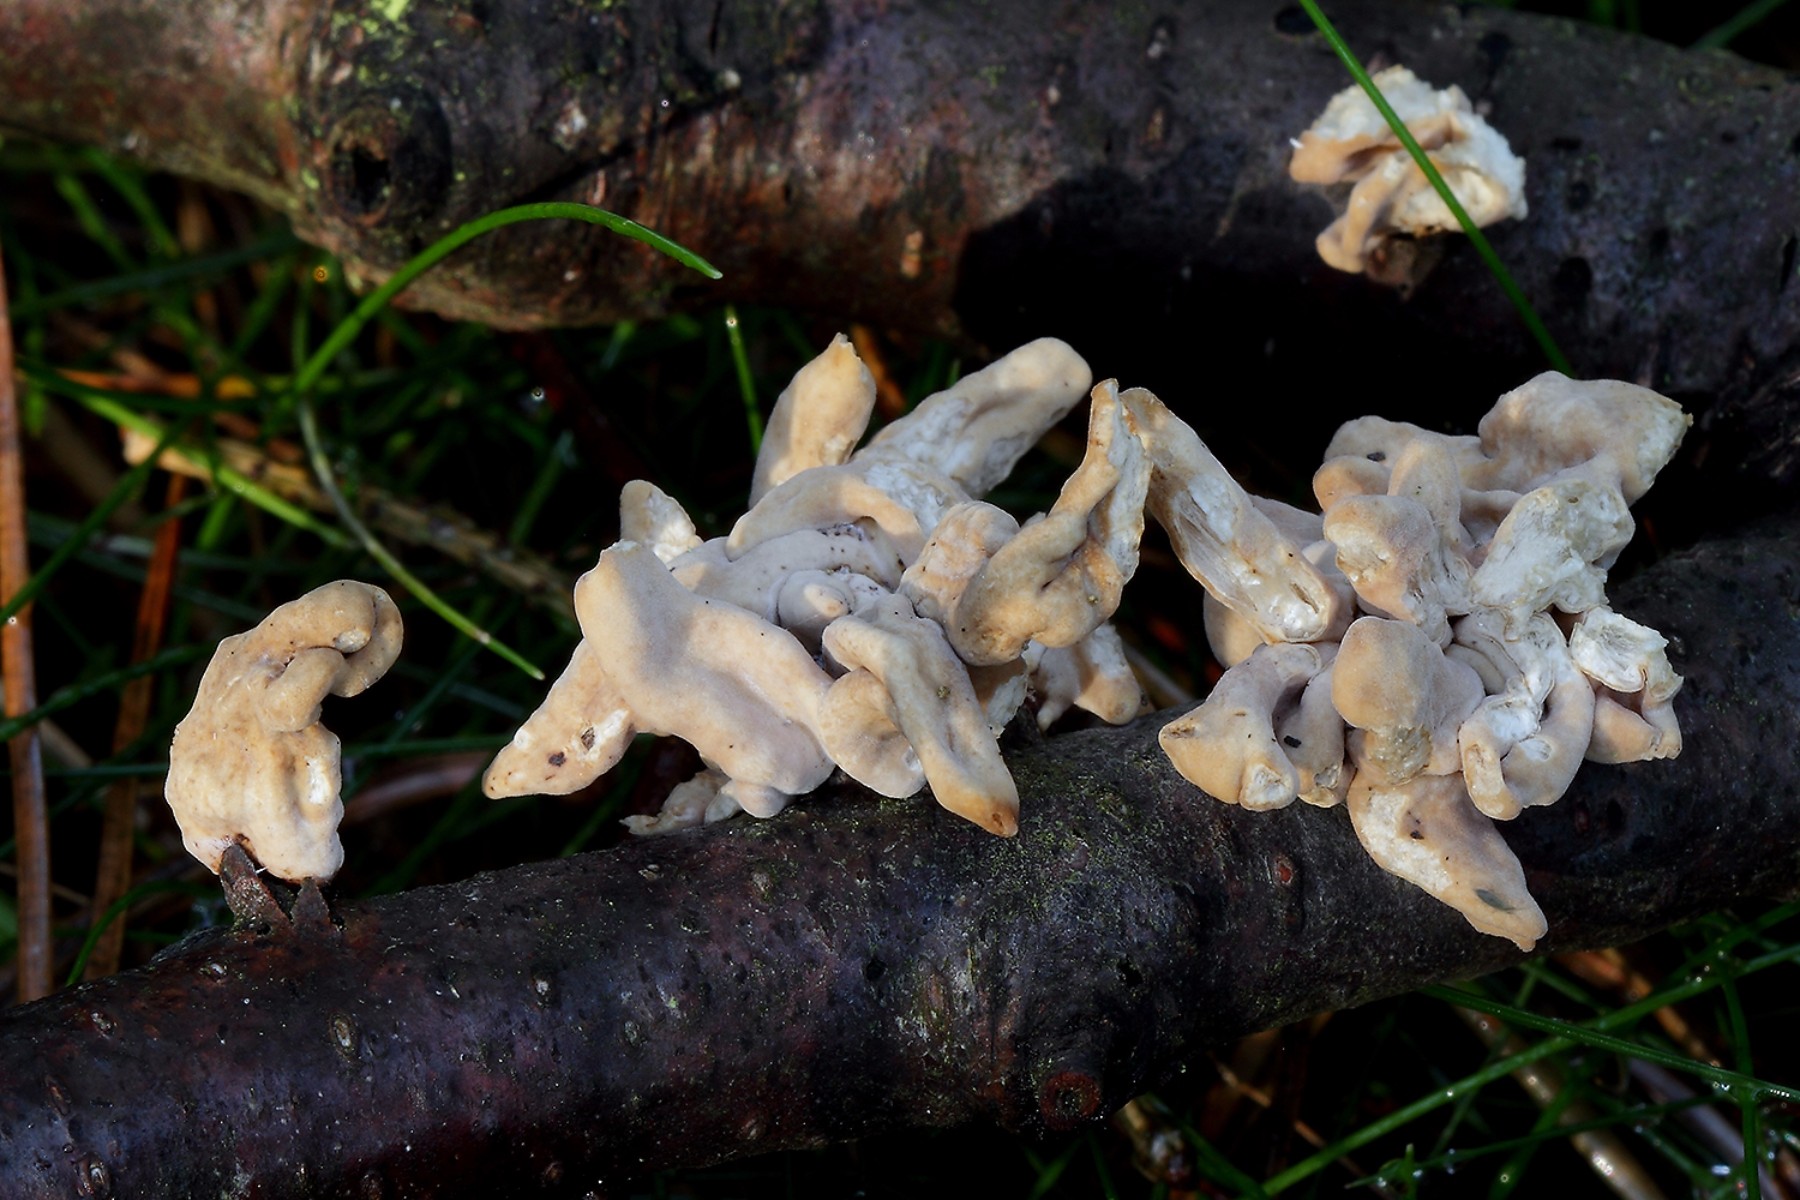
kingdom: Fungi
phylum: Basidiomycota
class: Agaricomycetes
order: Agaricales
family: Typhulaceae
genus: Typhula
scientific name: Typhula contorta
